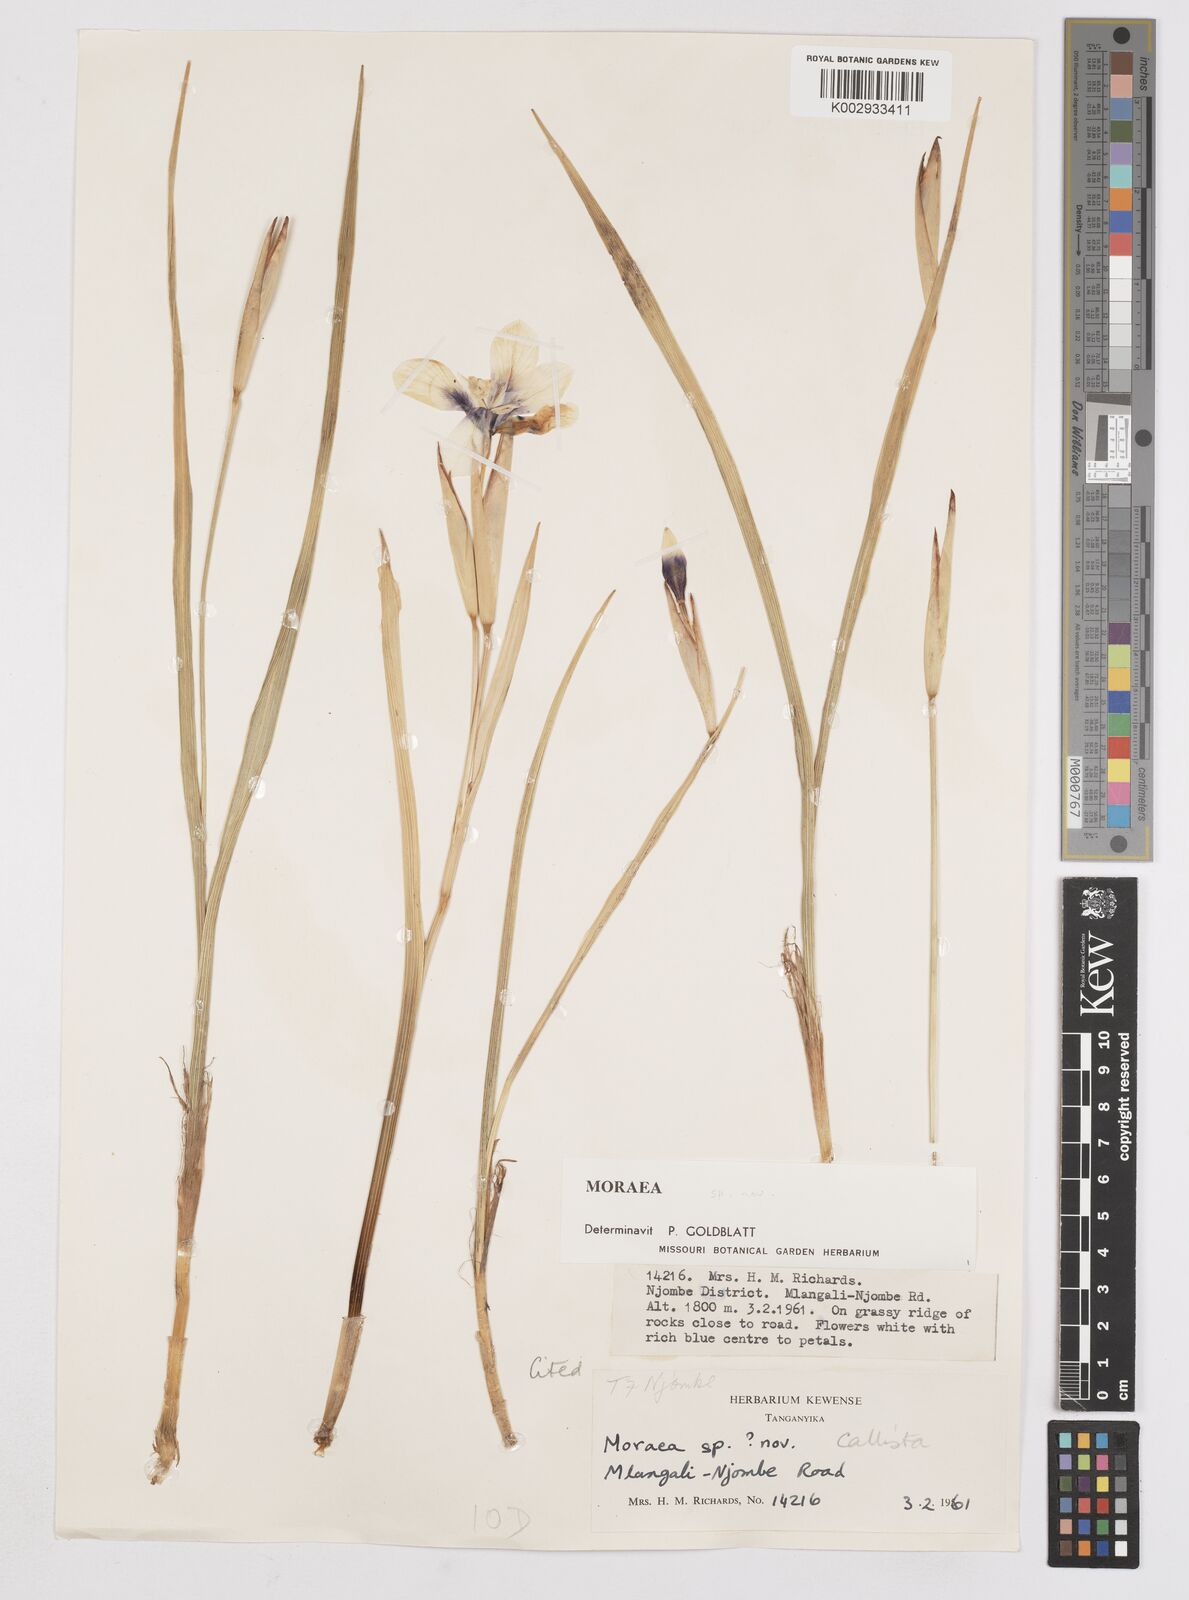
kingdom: Plantae
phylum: Tracheophyta
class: Liliopsida
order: Asparagales
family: Iridaceae
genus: Moraea
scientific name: Moraea callista
